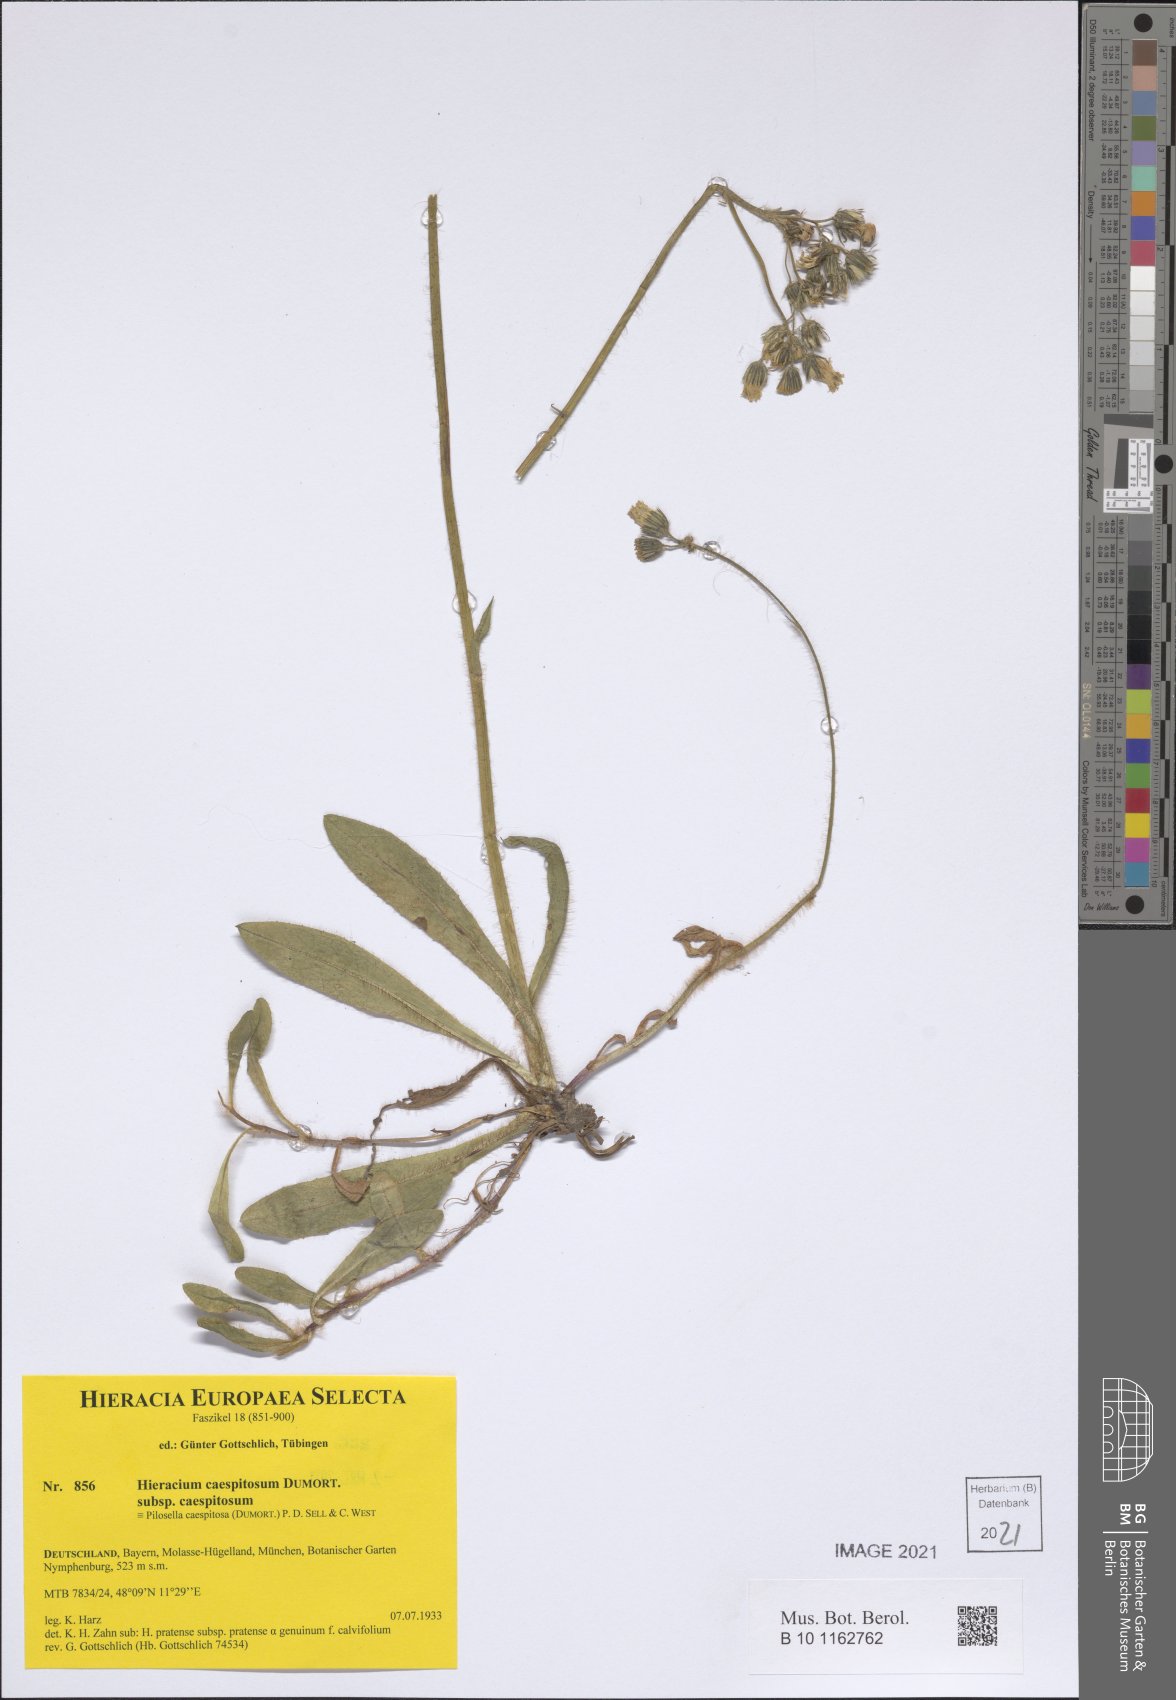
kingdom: Plantae
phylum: Tracheophyta
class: Magnoliopsida
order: Asterales
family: Asteraceae
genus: Pilosella
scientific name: Pilosella caespitosa
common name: Yellow fox-and-cubs
